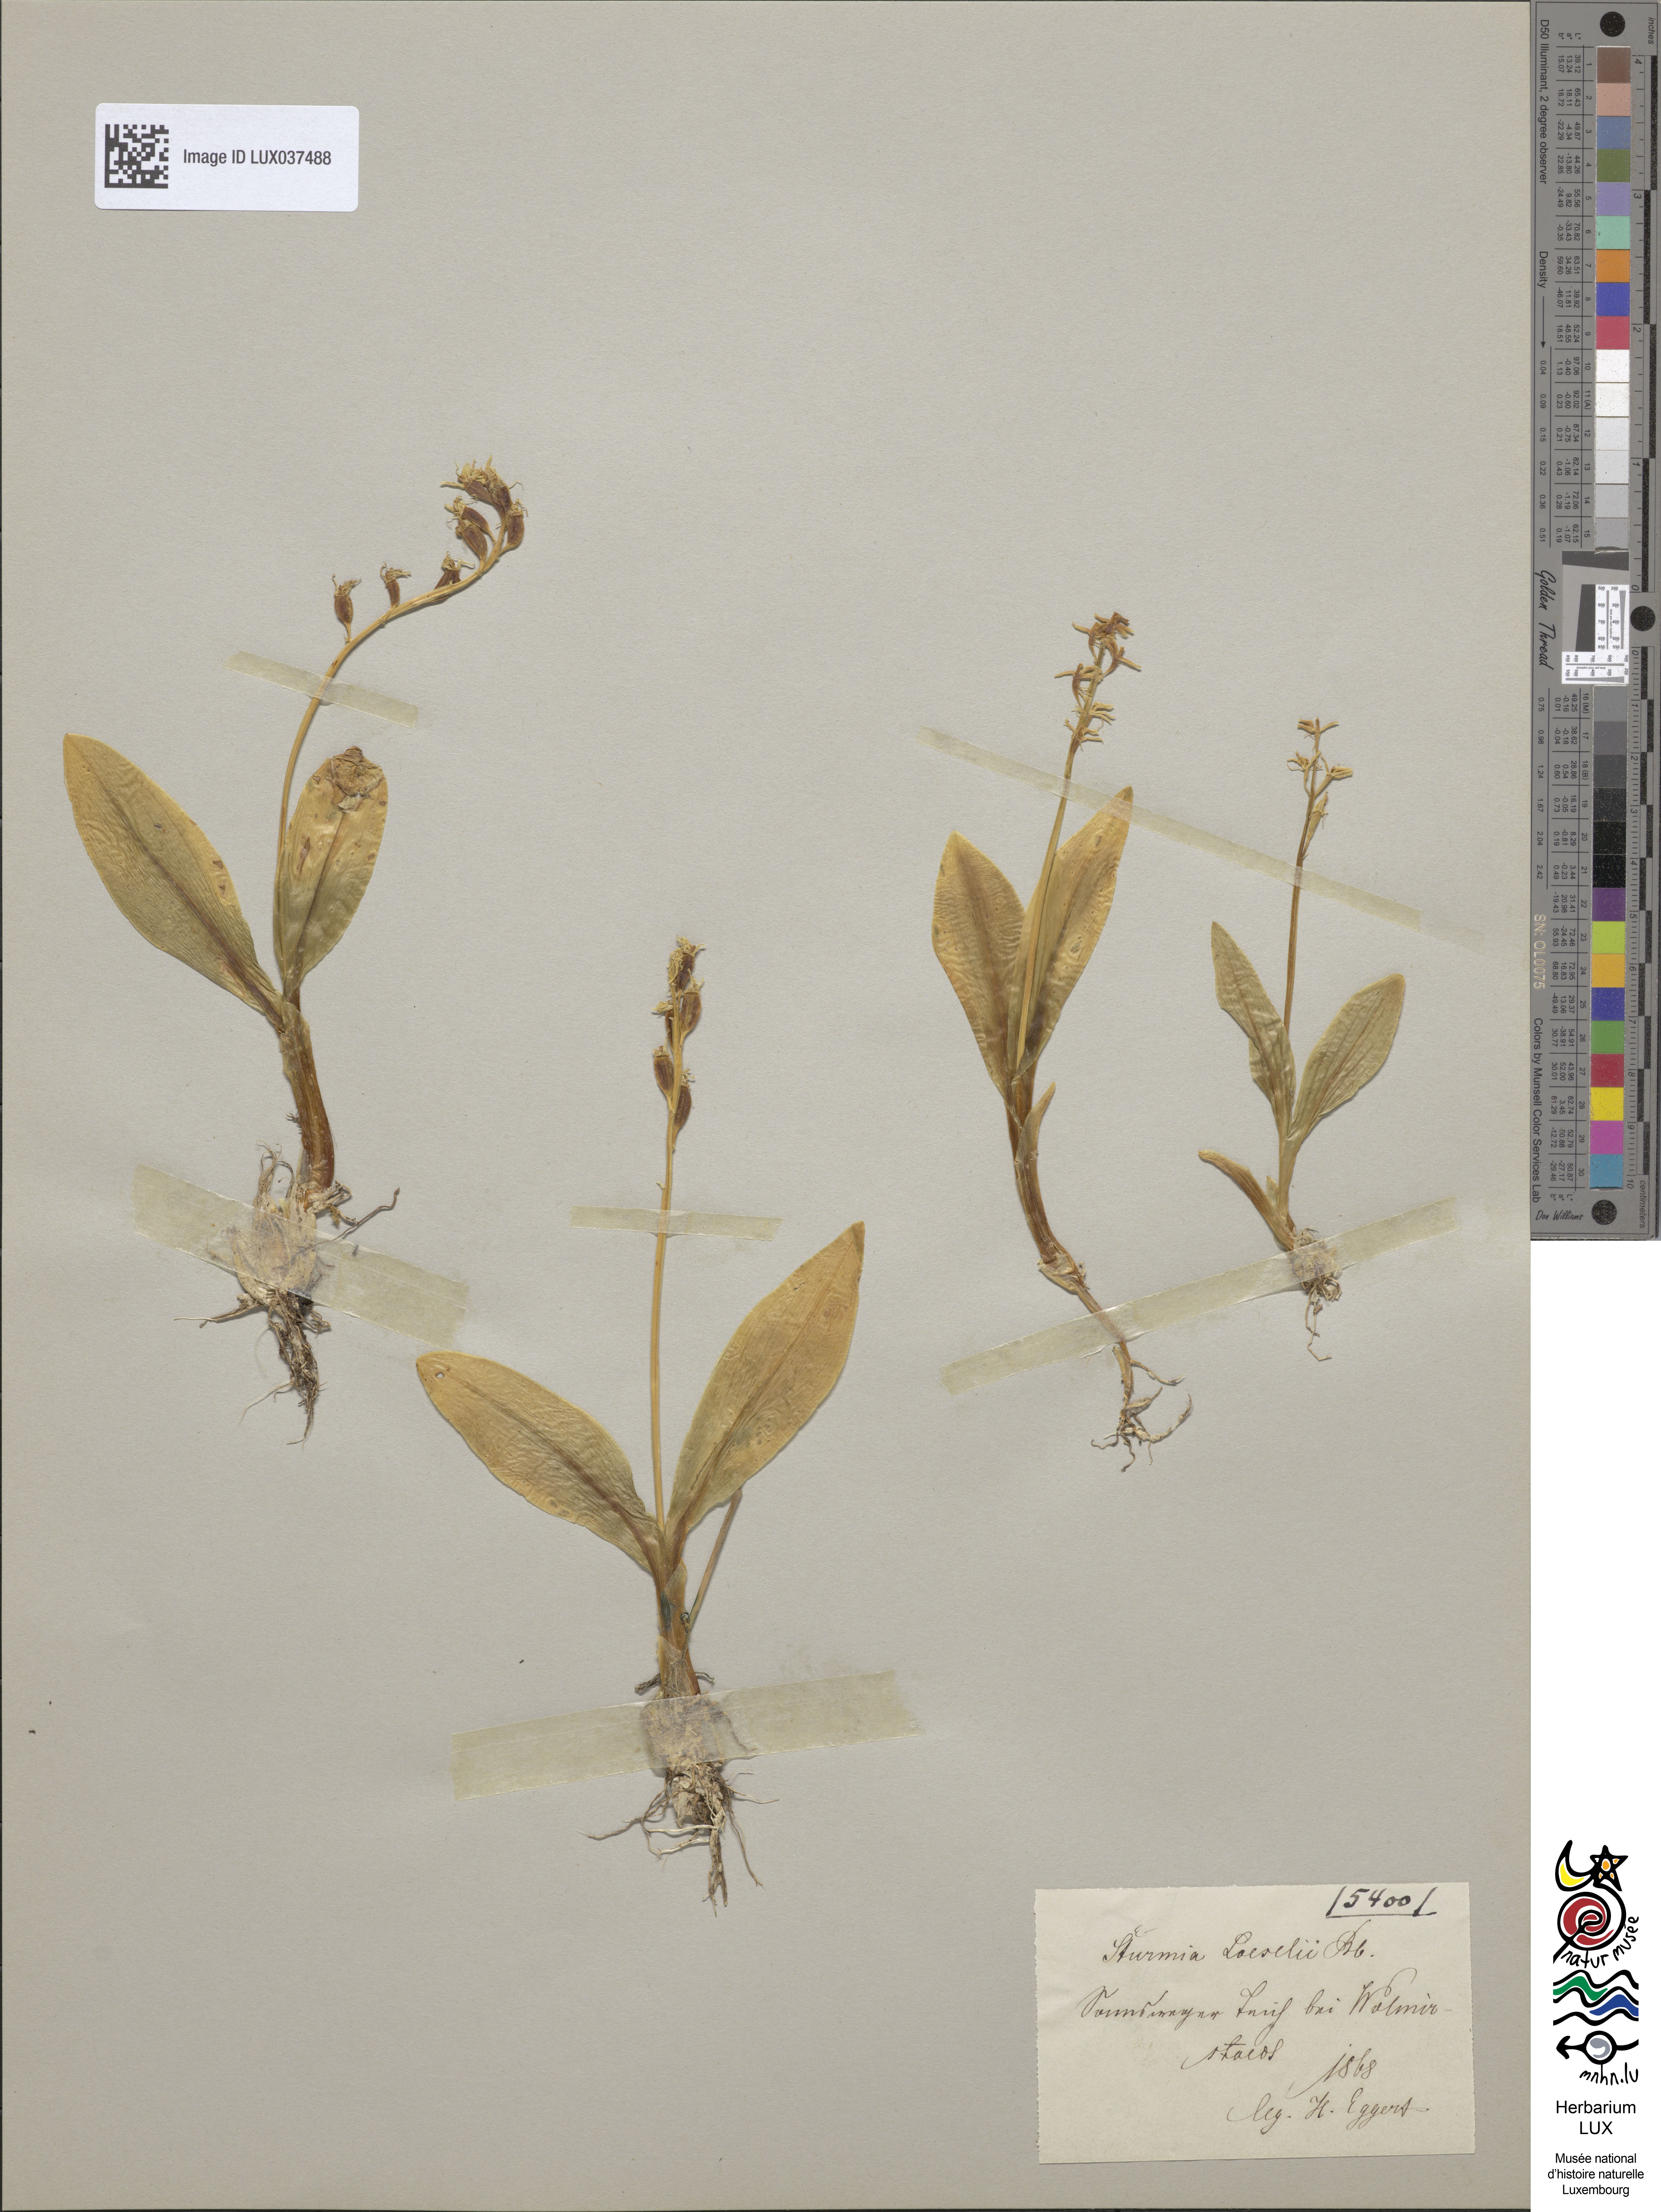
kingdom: Animalia
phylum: Arthropoda
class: Insecta
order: Coleoptera
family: Curculionidae
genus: Liparis
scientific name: Liparis loeselii
